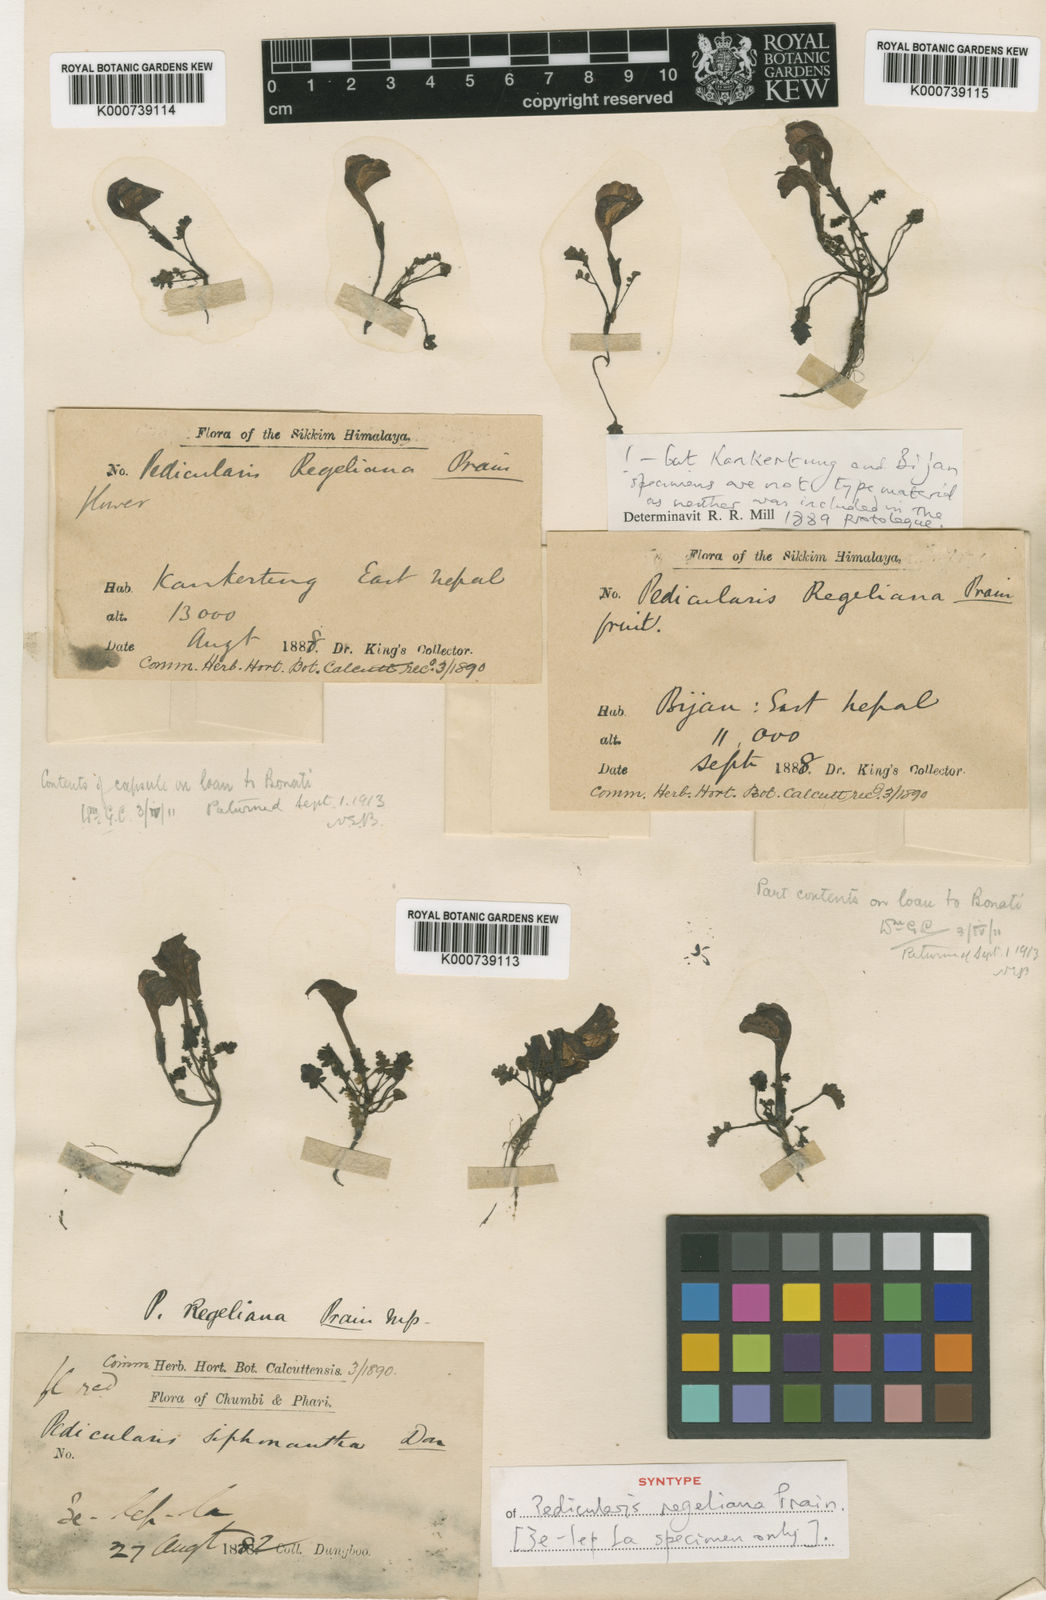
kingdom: Plantae
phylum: Tracheophyta
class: Magnoliopsida
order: Lamiales
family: Orobanchaceae
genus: Pedicularis
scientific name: Pedicularis regeliana
